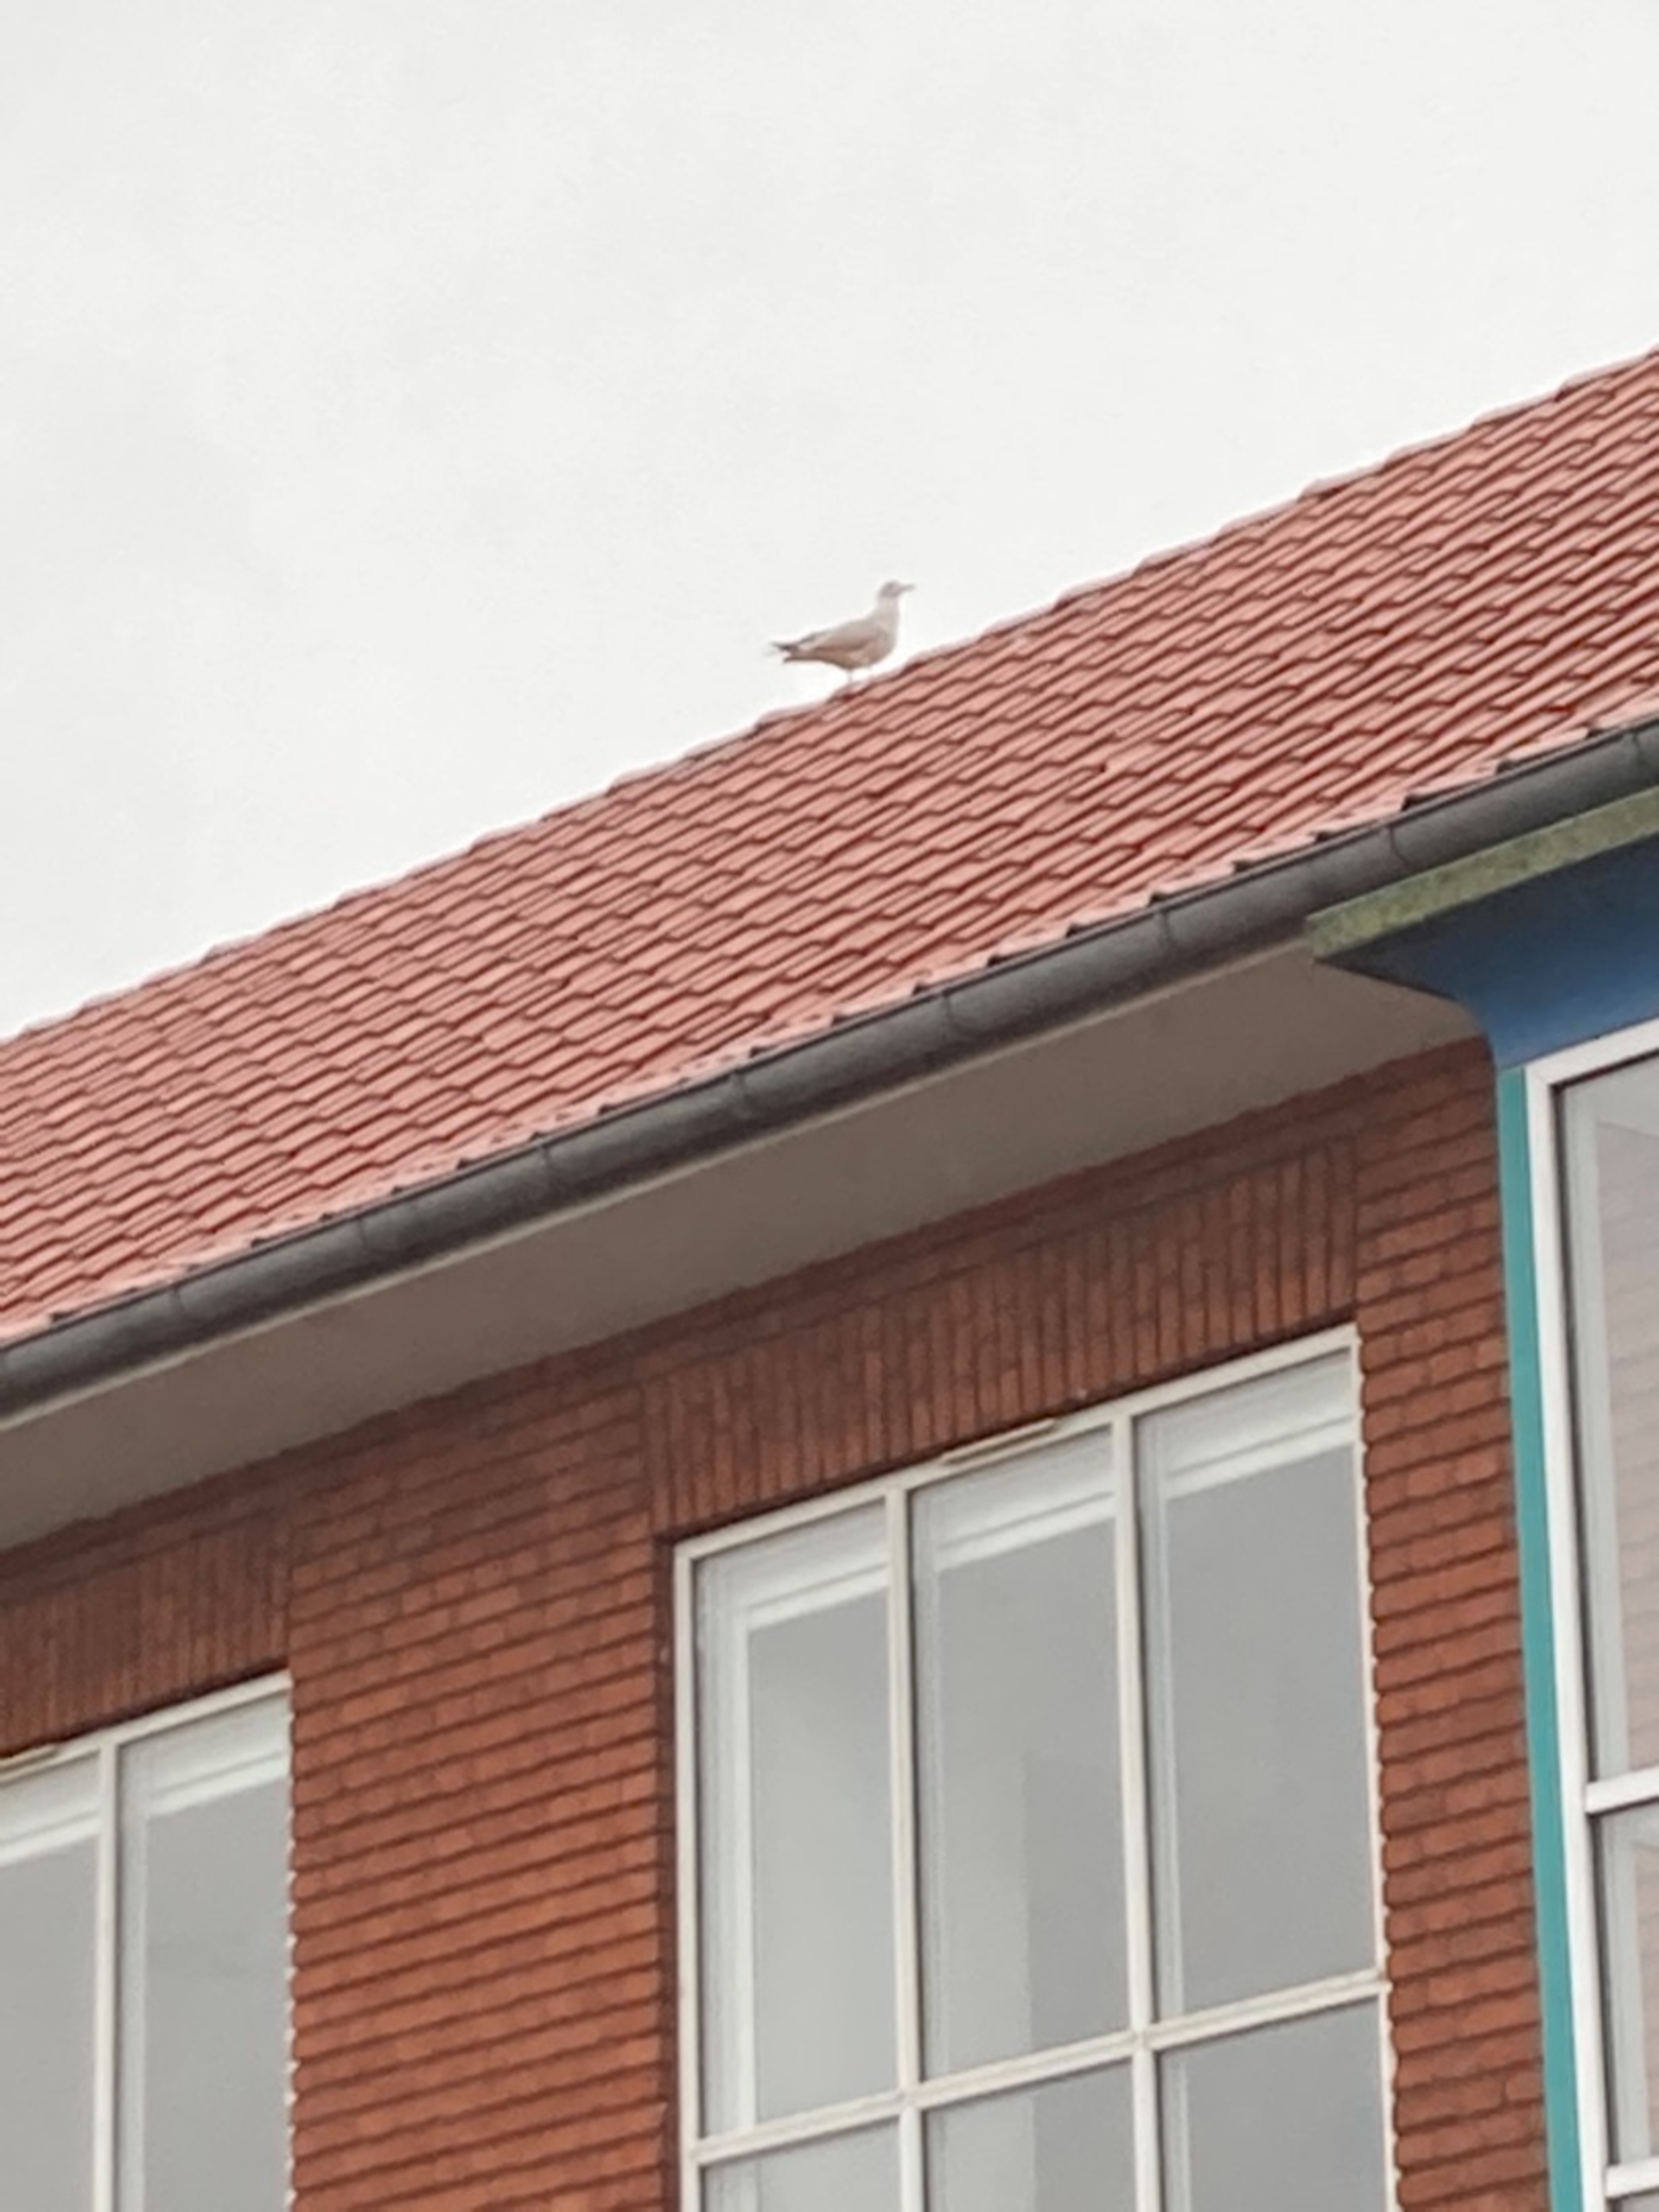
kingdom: Animalia
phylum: Chordata
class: Aves
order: Charadriiformes
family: Laridae
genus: Larus
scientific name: Larus argentatus
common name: Sølvmåge
